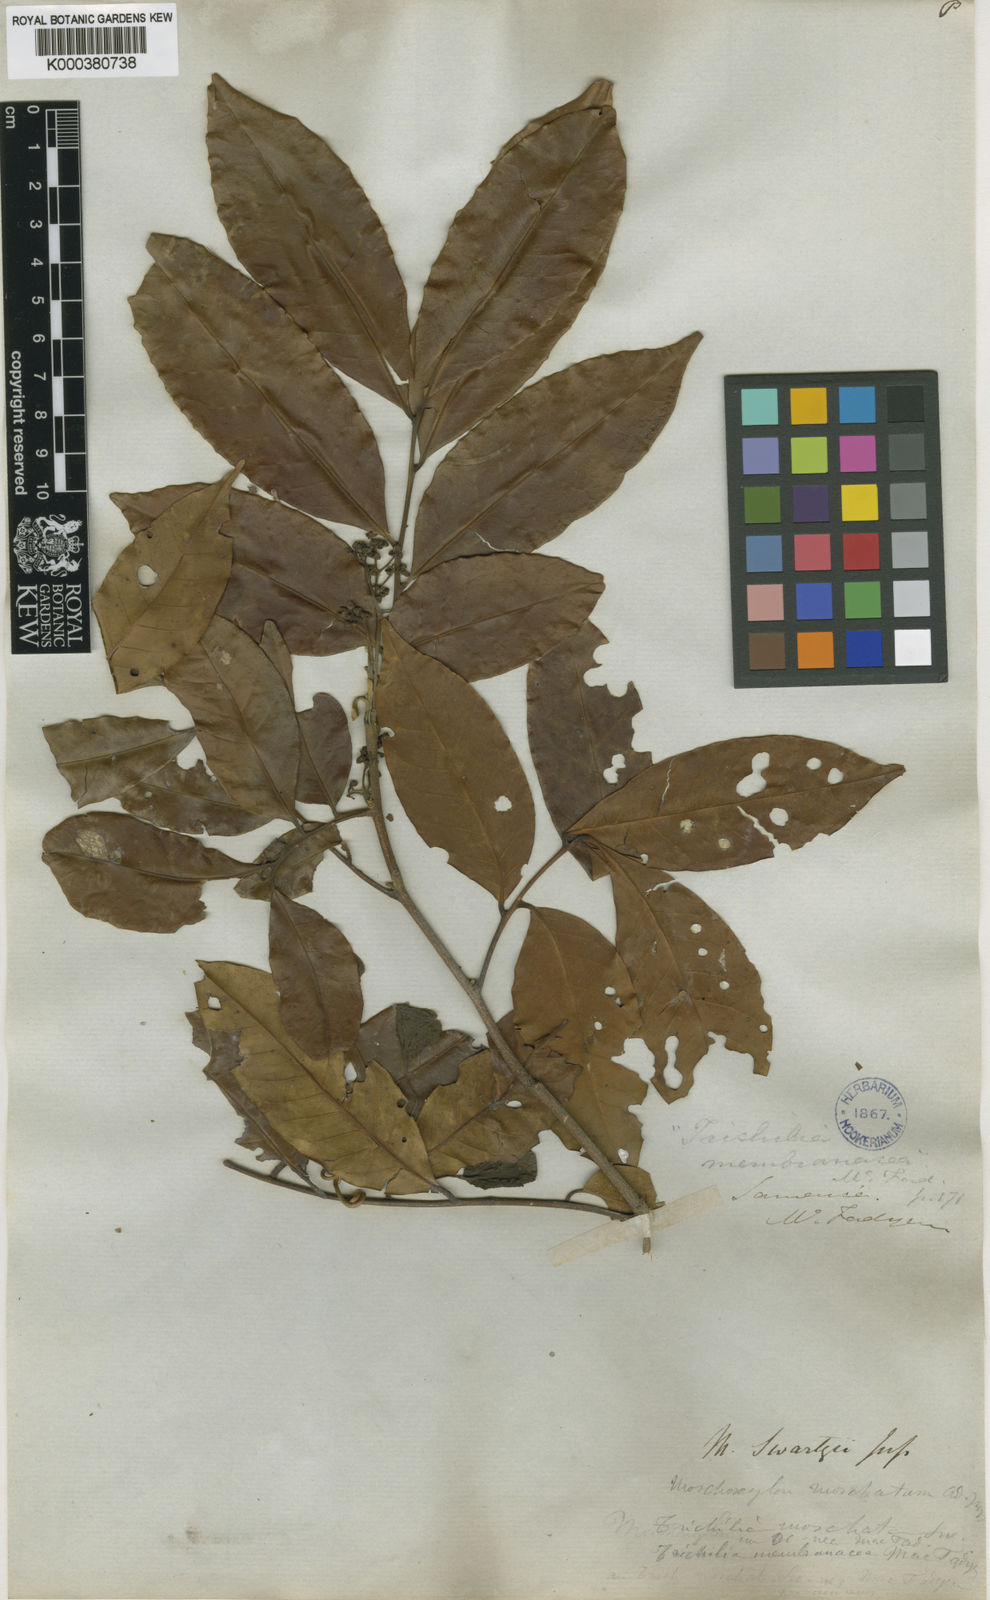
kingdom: Plantae
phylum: Tracheophyta
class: Magnoliopsida
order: Sapindales
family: Meliaceae
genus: Trichilia
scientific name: Trichilia moschata
